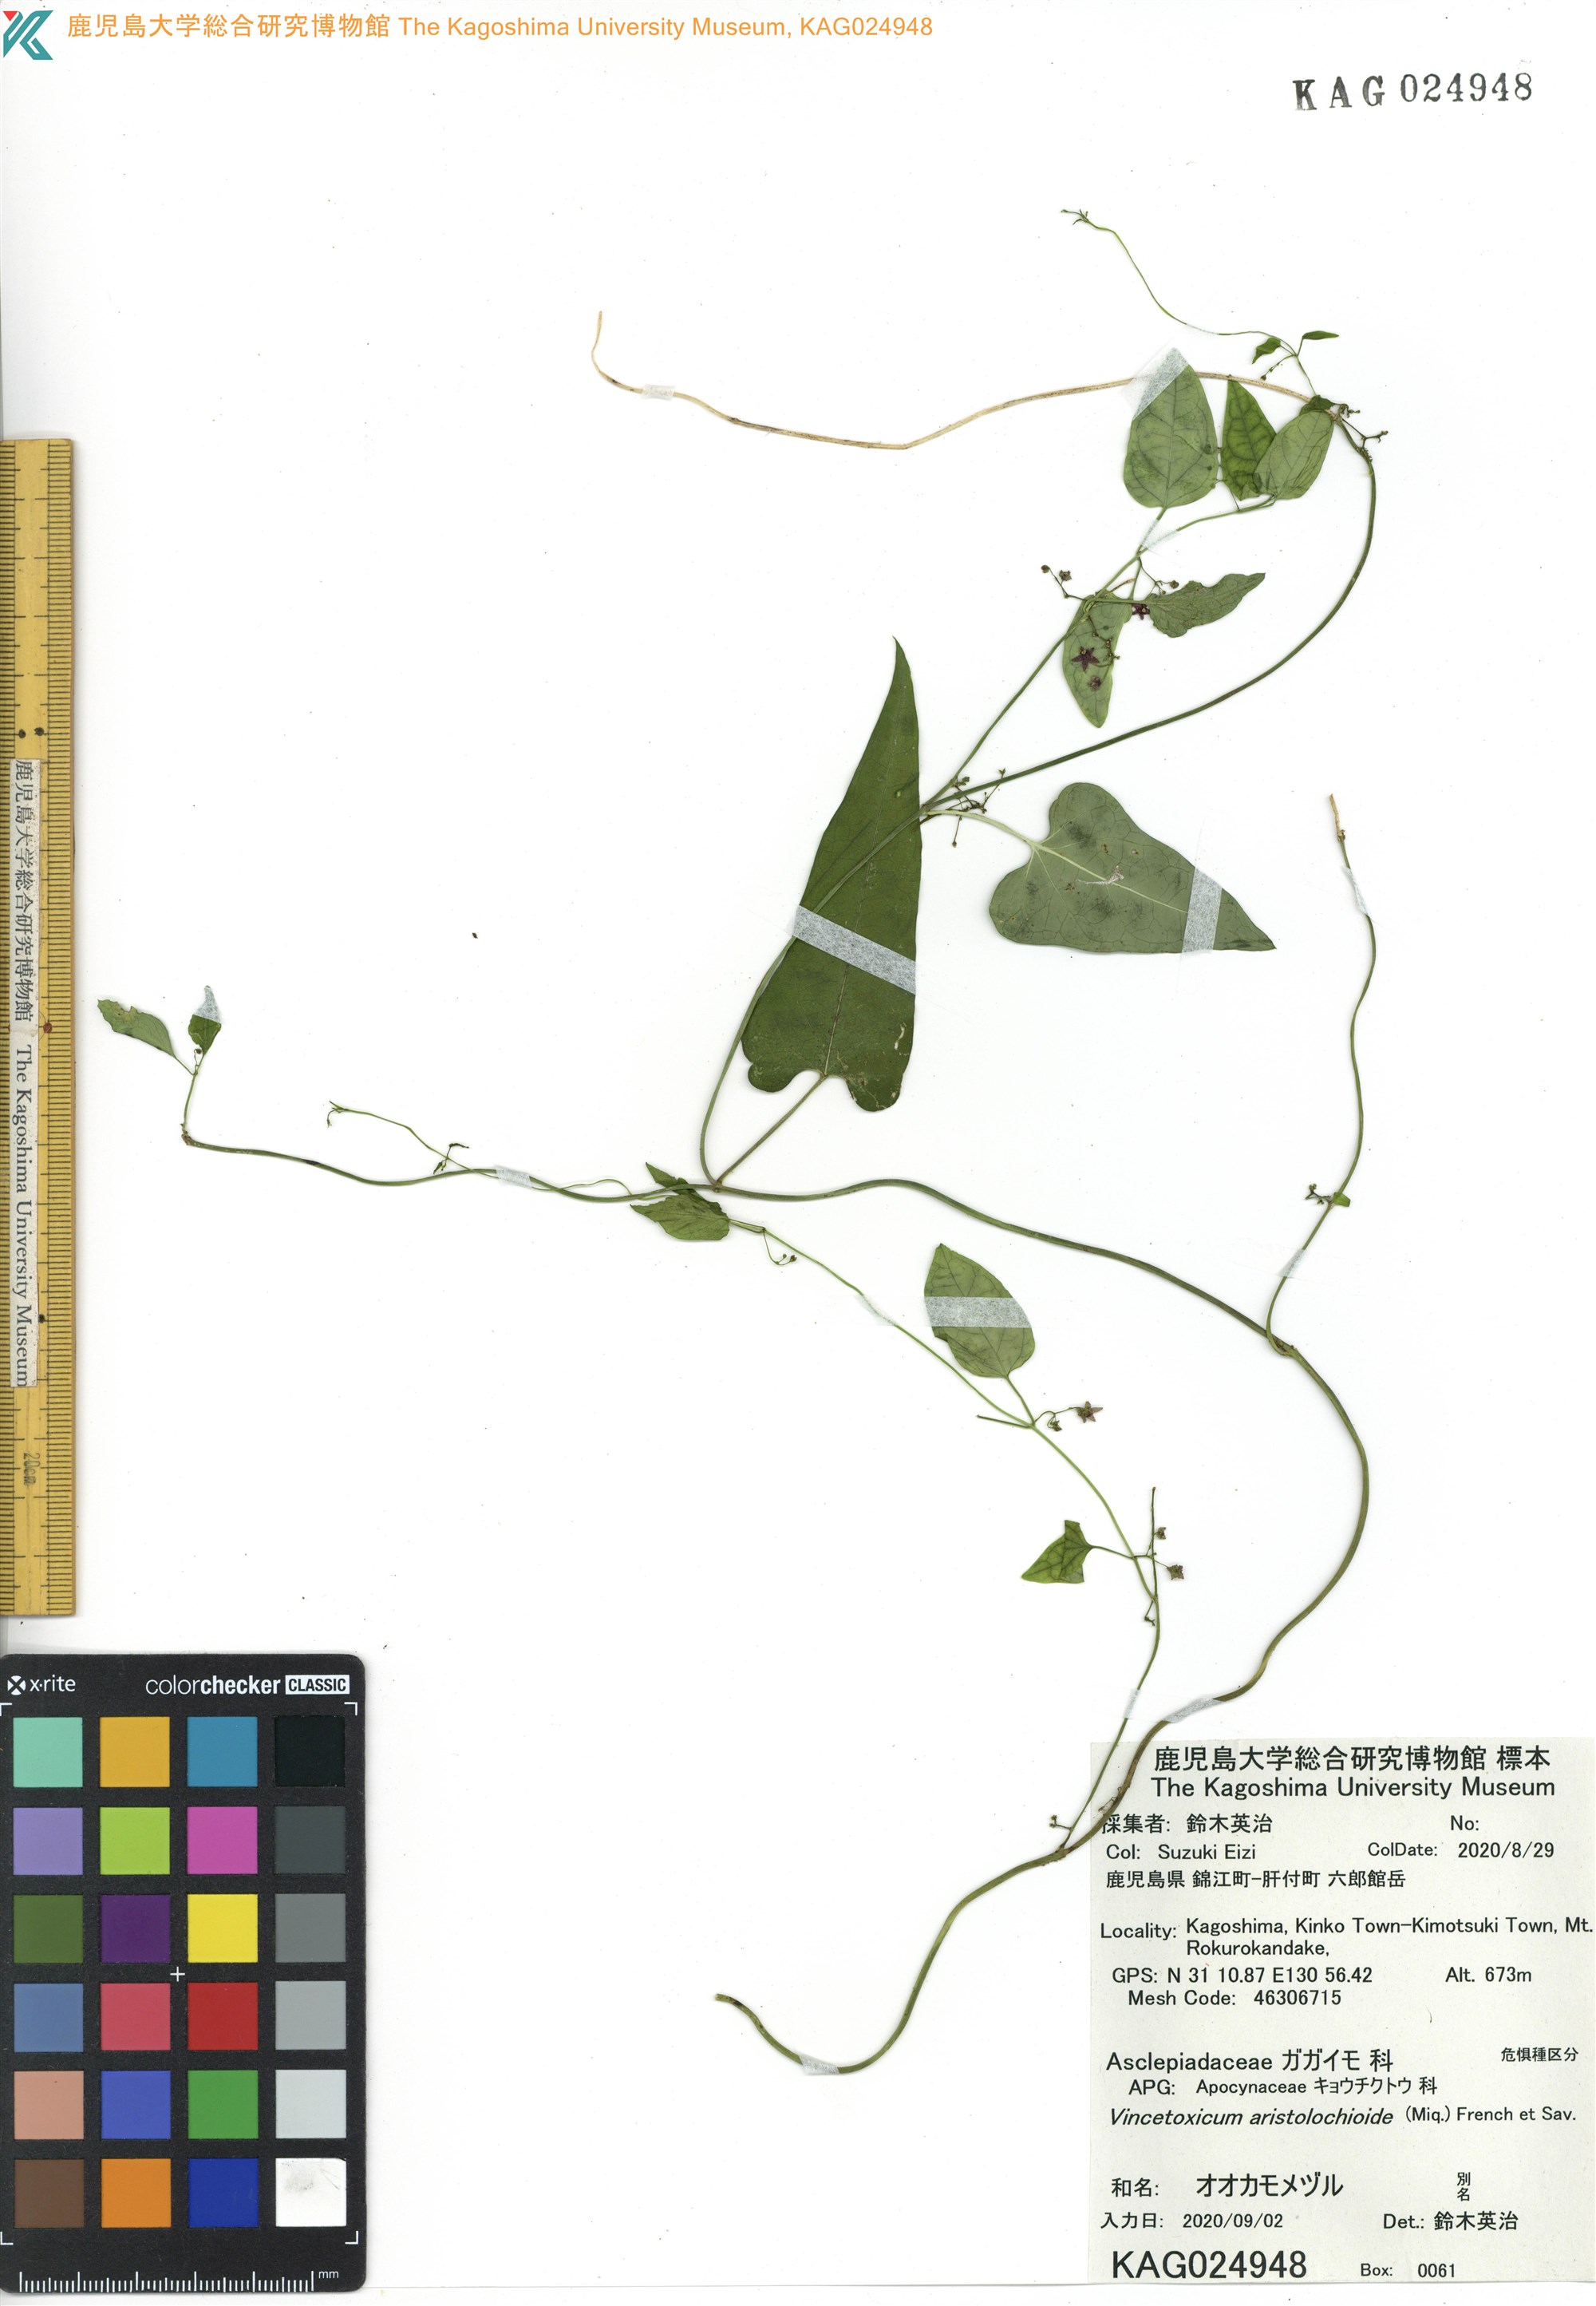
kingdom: Plantae
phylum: Tracheophyta
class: Magnoliopsida
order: Gentianales
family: Apocynaceae
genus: Vincetoxicum
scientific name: Vincetoxicum aristolochioides
